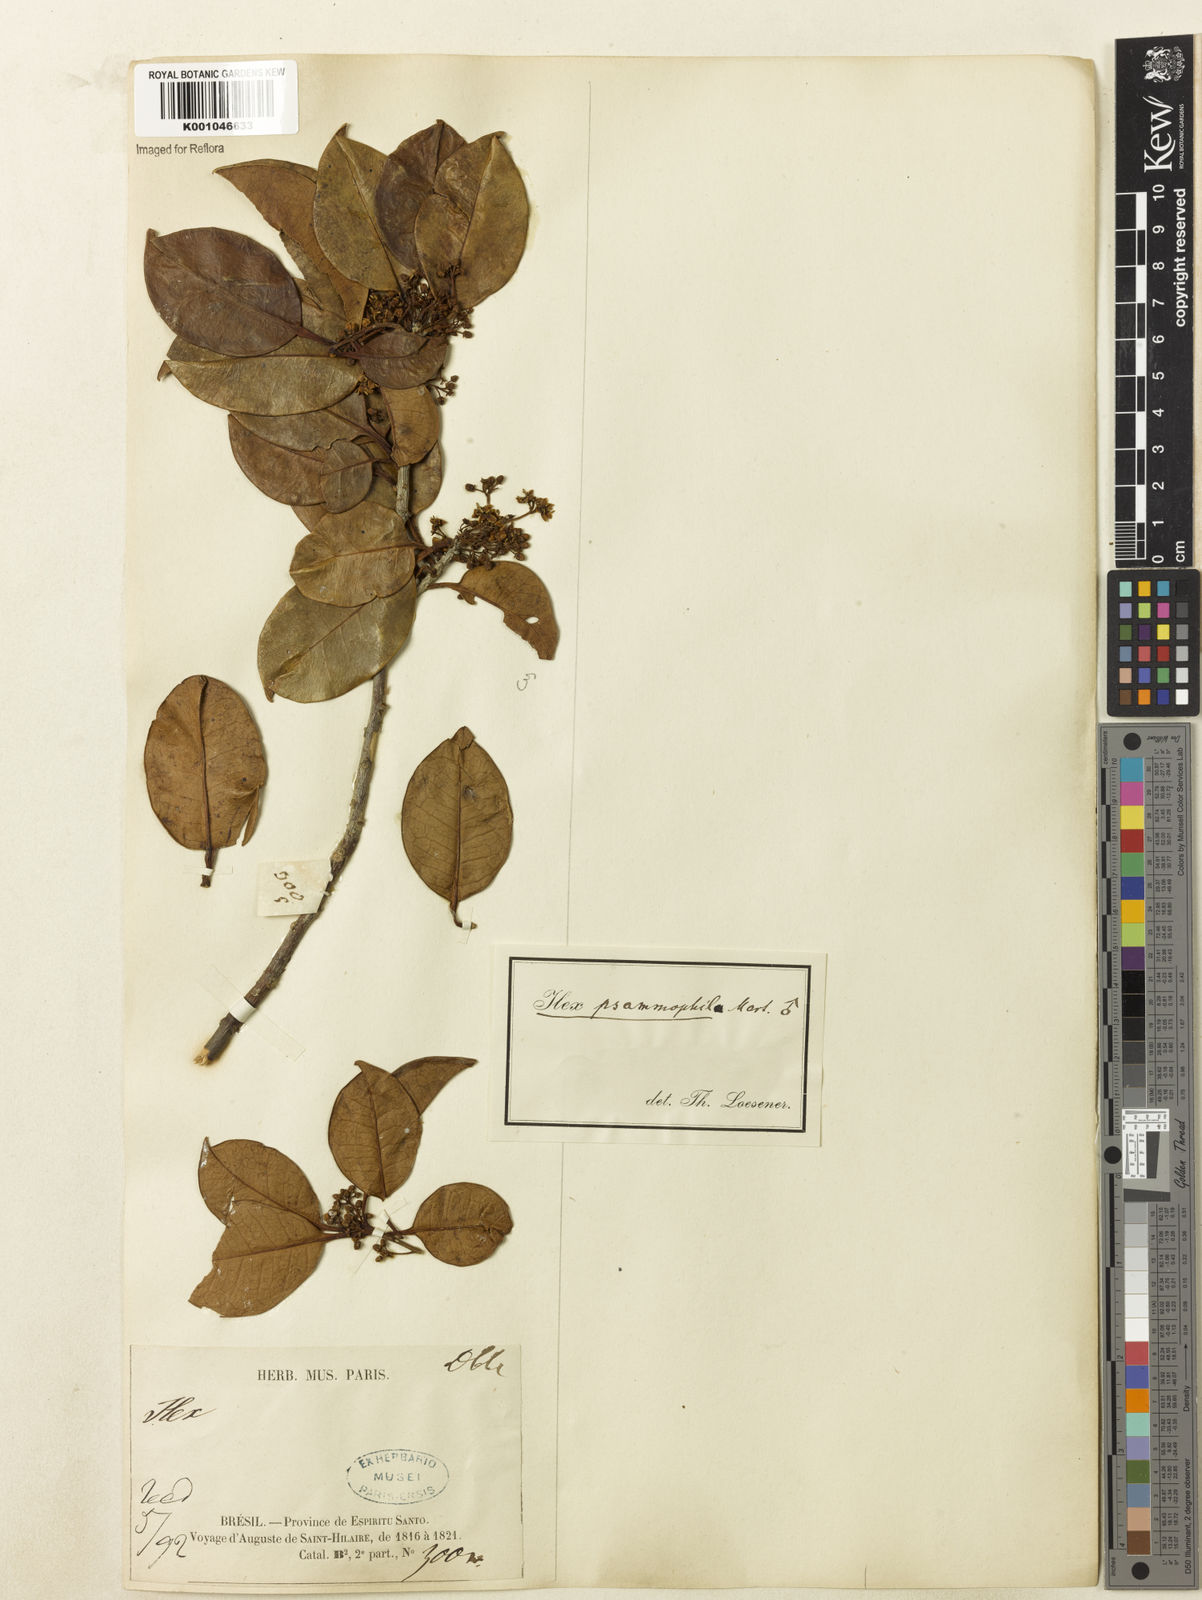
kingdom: Plantae
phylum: Tracheophyta
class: Magnoliopsida
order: Aquifoliales
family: Aquifoliaceae
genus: Ilex
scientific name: Ilex psammophila
